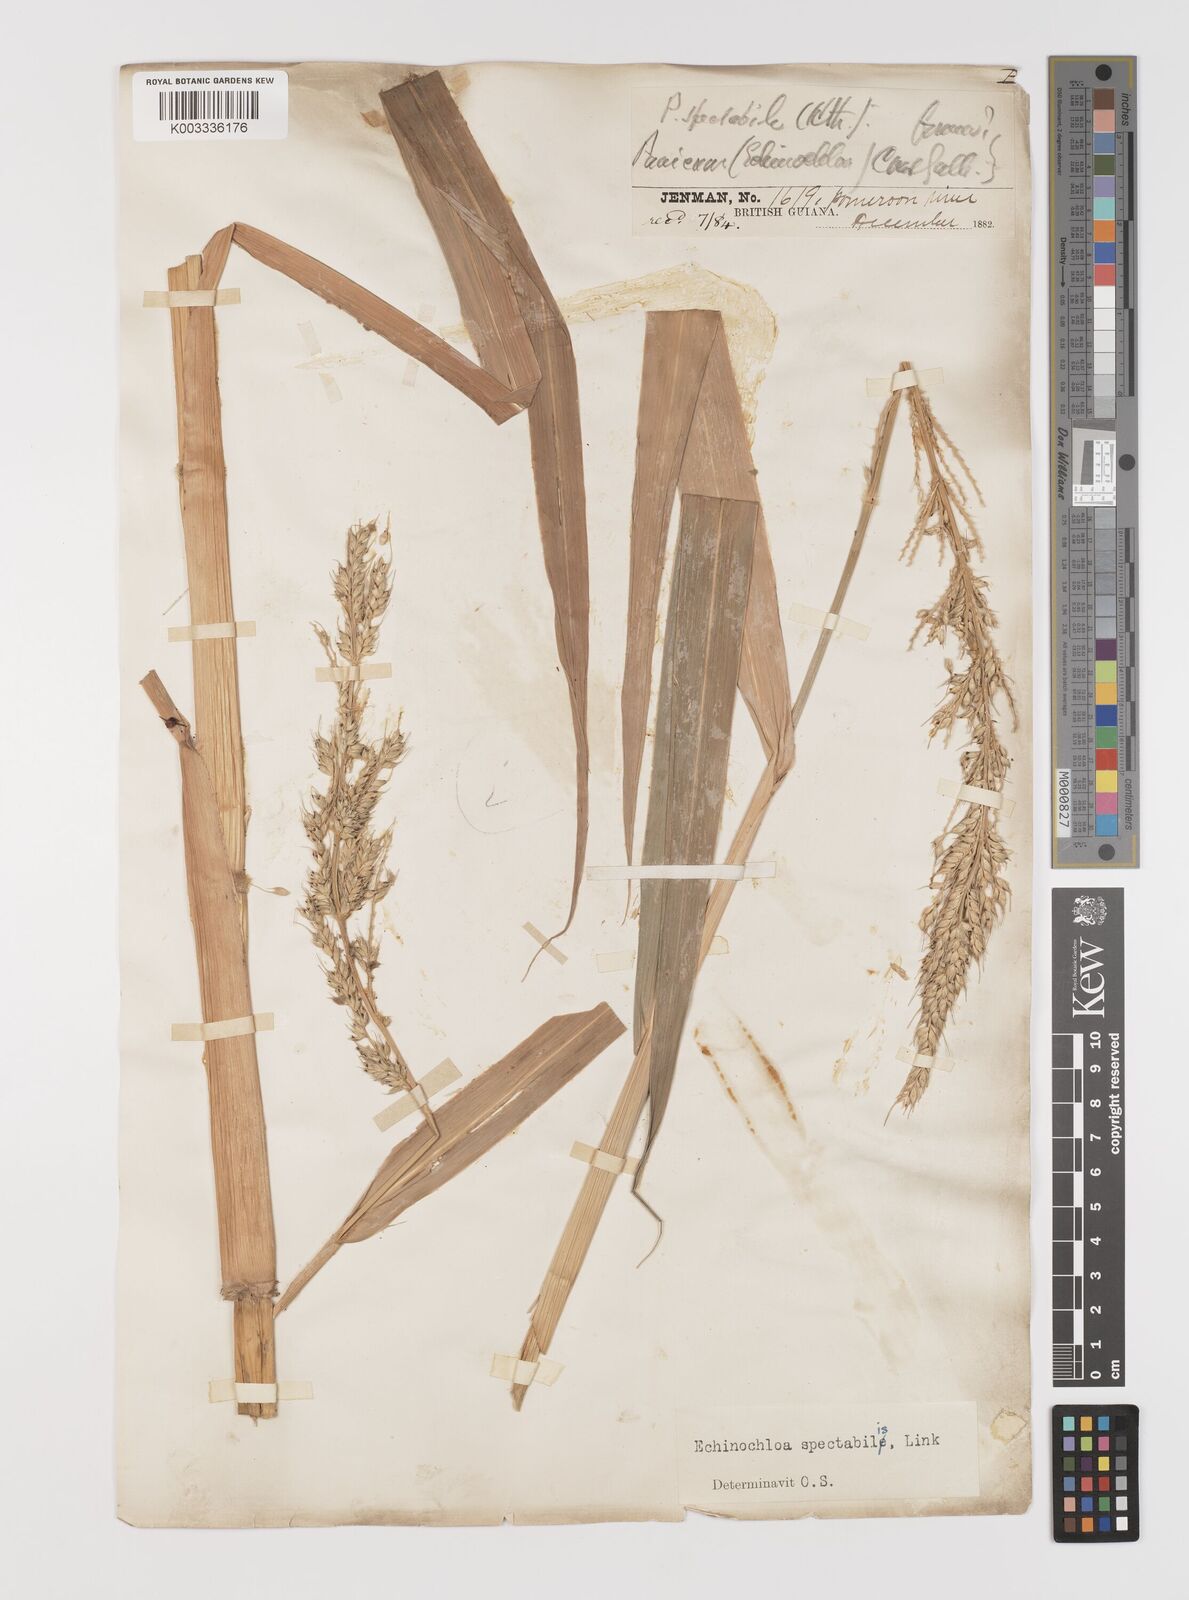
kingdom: Plantae
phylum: Tracheophyta
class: Liliopsida
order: Poales
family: Poaceae
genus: Pseudechinolaena
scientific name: Pseudechinolaena polystachya
